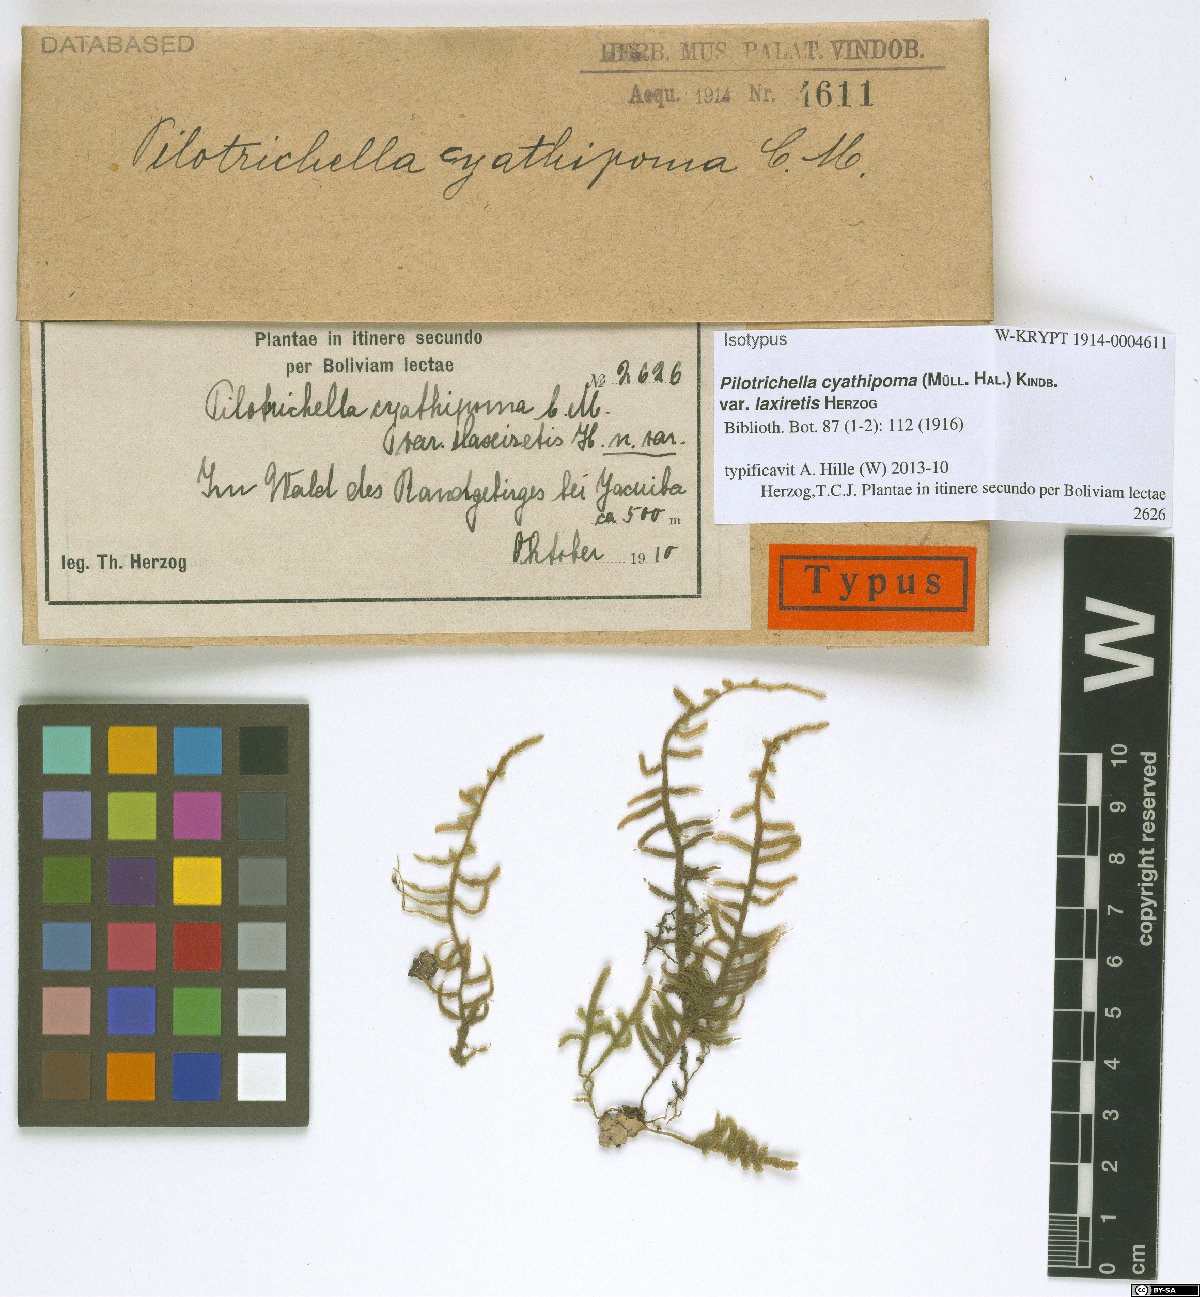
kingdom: Plantae
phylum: Bryophyta
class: Bryopsida
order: Hypnales
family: Orthostichellaceae
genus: Orthostichella
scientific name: Orthostichella pachygastrella
